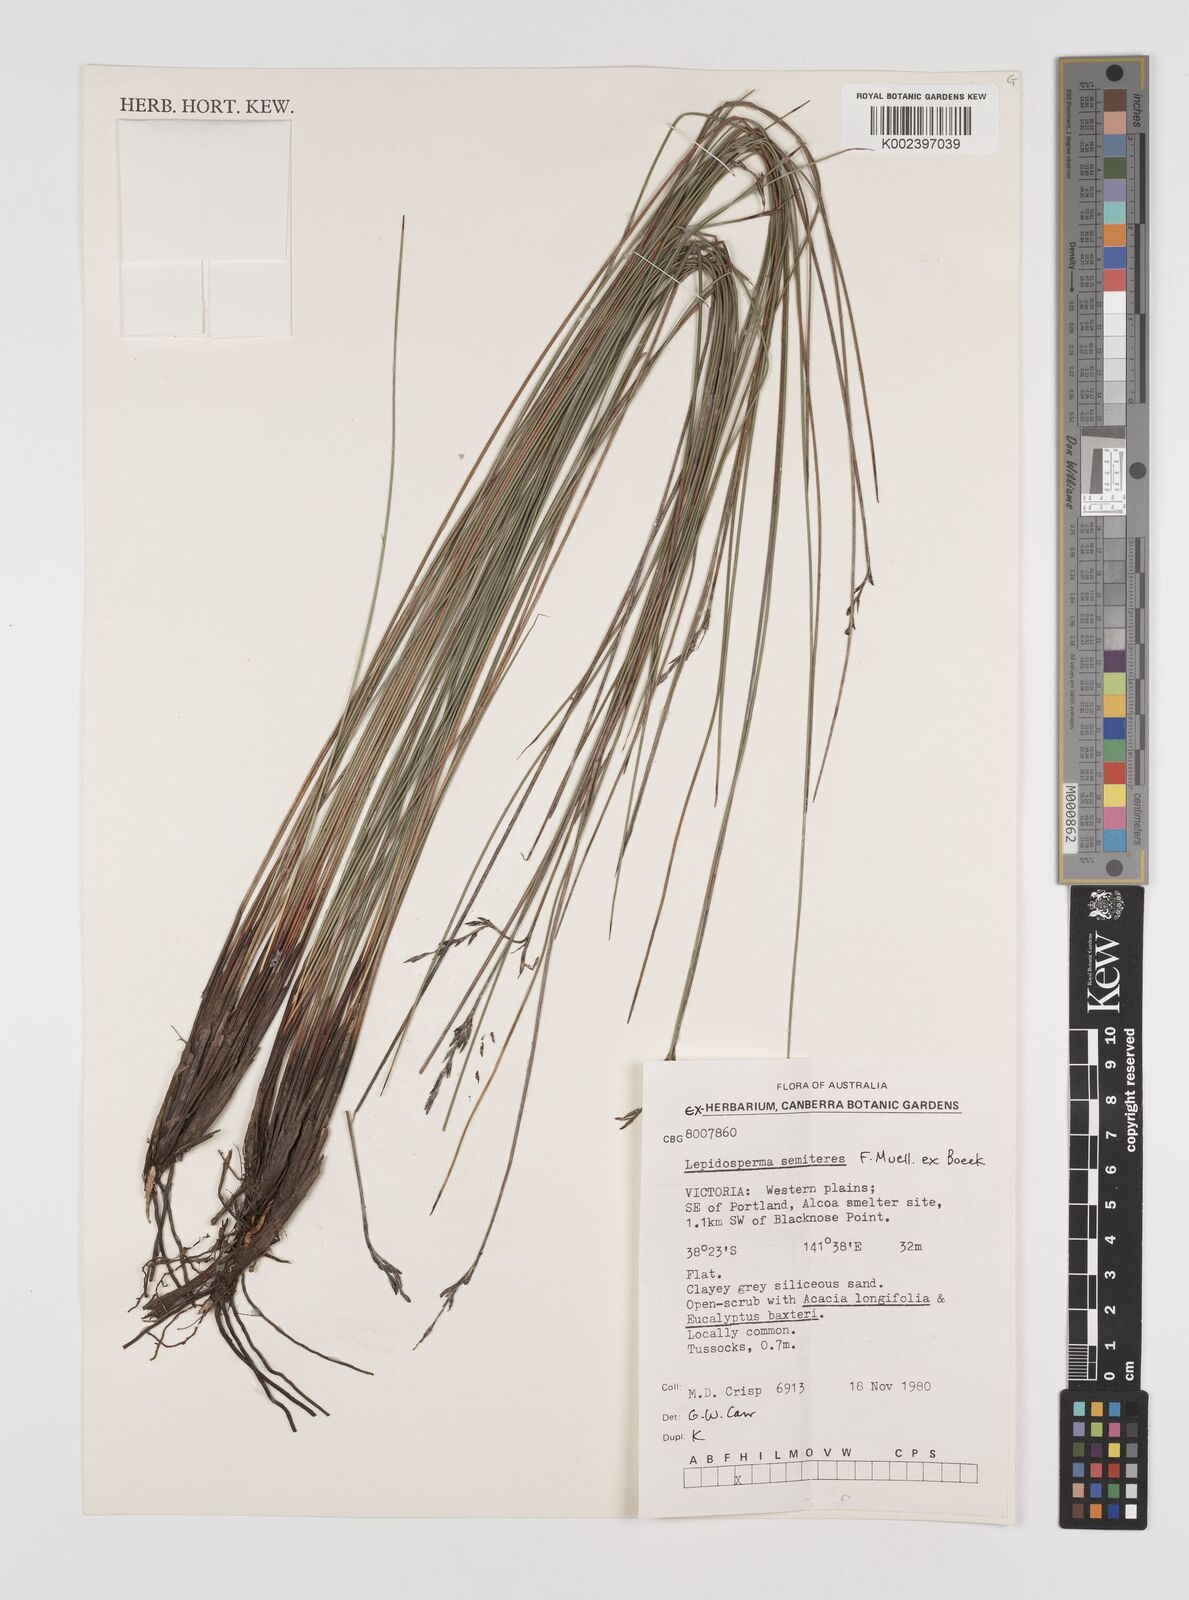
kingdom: Plantae
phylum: Tracheophyta
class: Liliopsida
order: Poales
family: Cyperaceae
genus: Lepidosperma
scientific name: Lepidosperma semiteres
